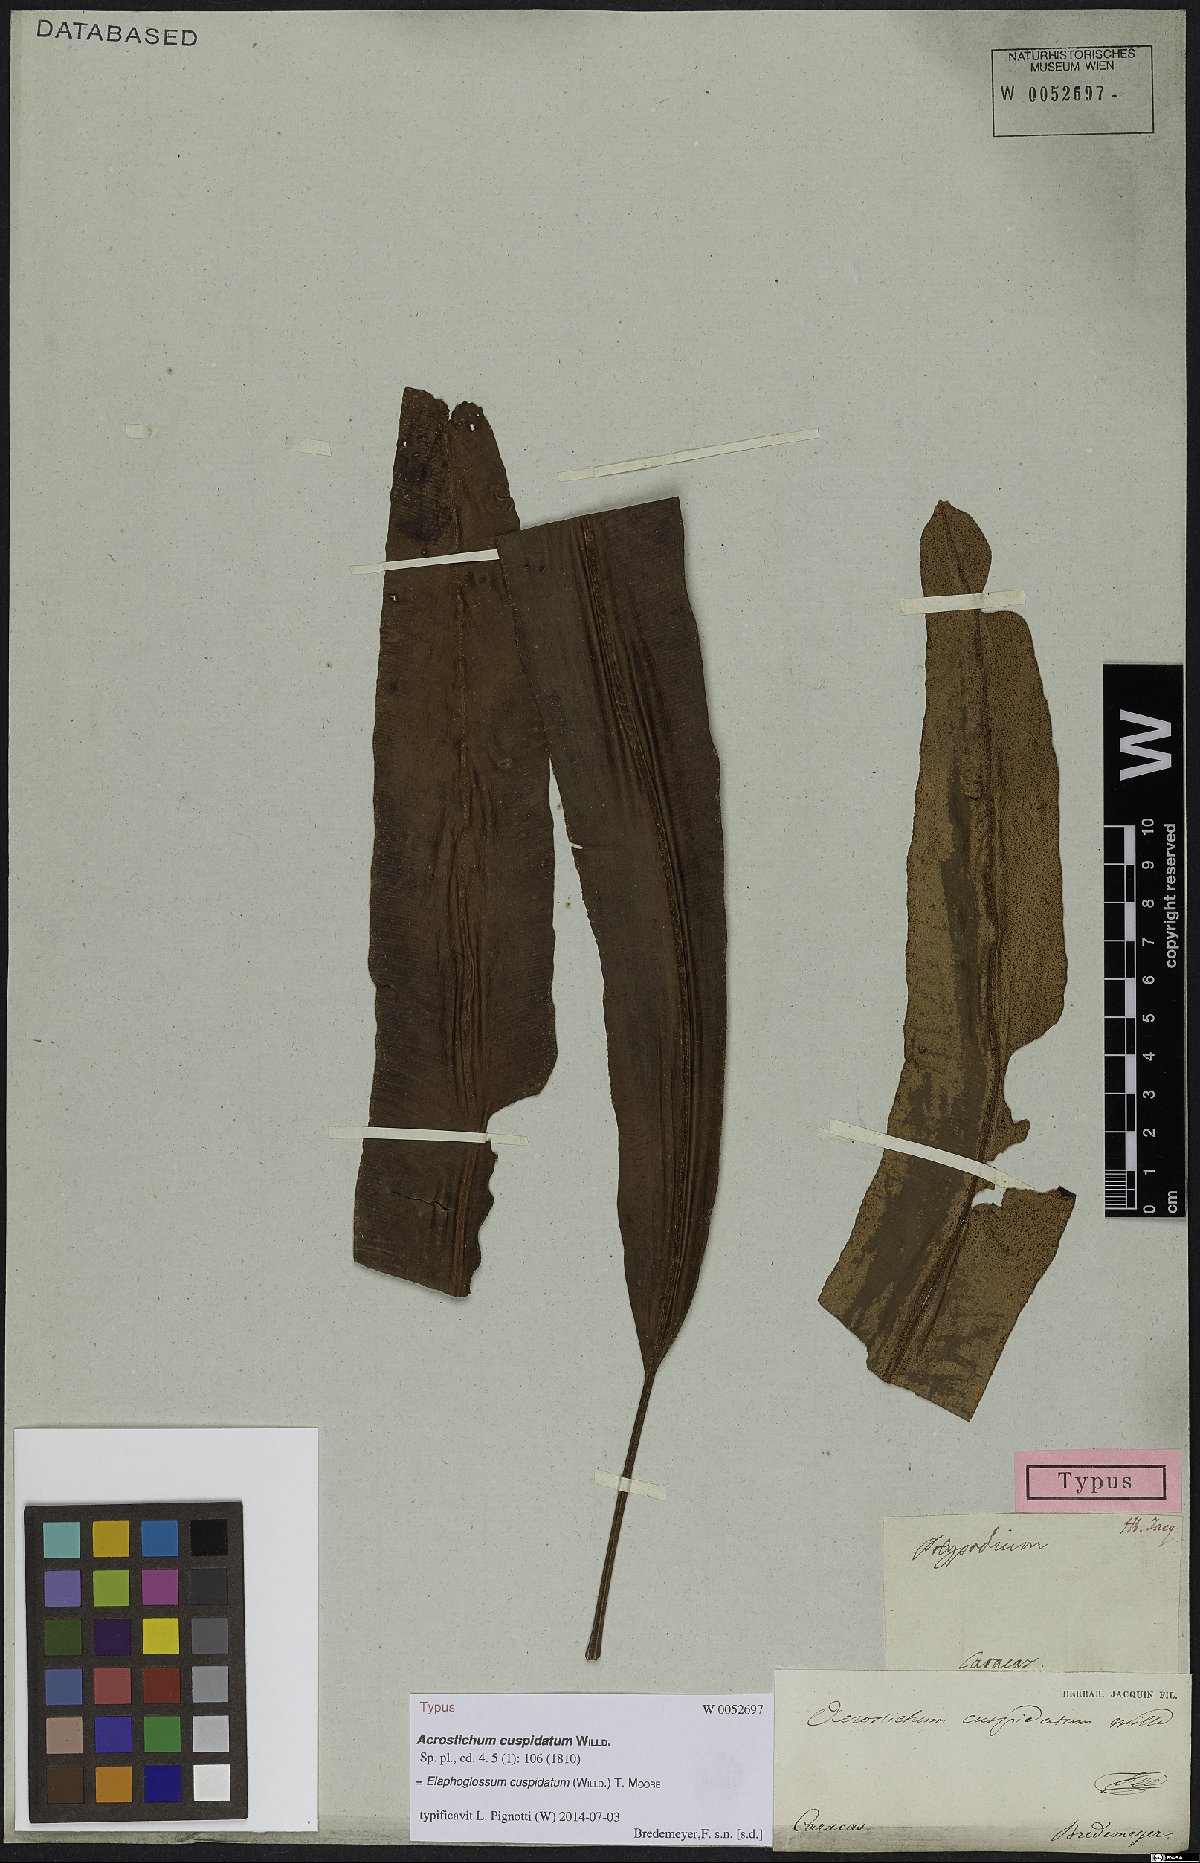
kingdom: Plantae
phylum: Tracheophyta
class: Polypodiopsida
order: Polypodiales
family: Dryopteridaceae
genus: Elaphoglossum
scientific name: Elaphoglossum cuspidatum
